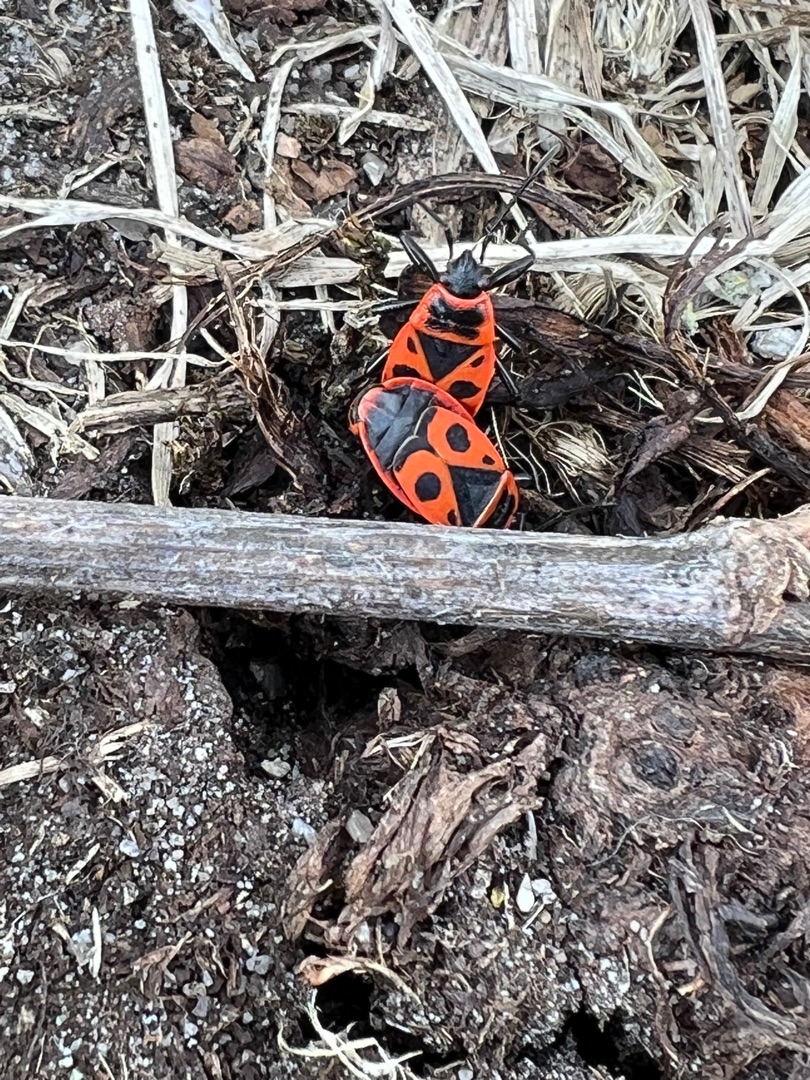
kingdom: Animalia
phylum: Arthropoda
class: Insecta
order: Hemiptera
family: Pyrrhocoridae
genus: Pyrrhocoris
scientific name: Pyrrhocoris apterus
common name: Ildtæge
